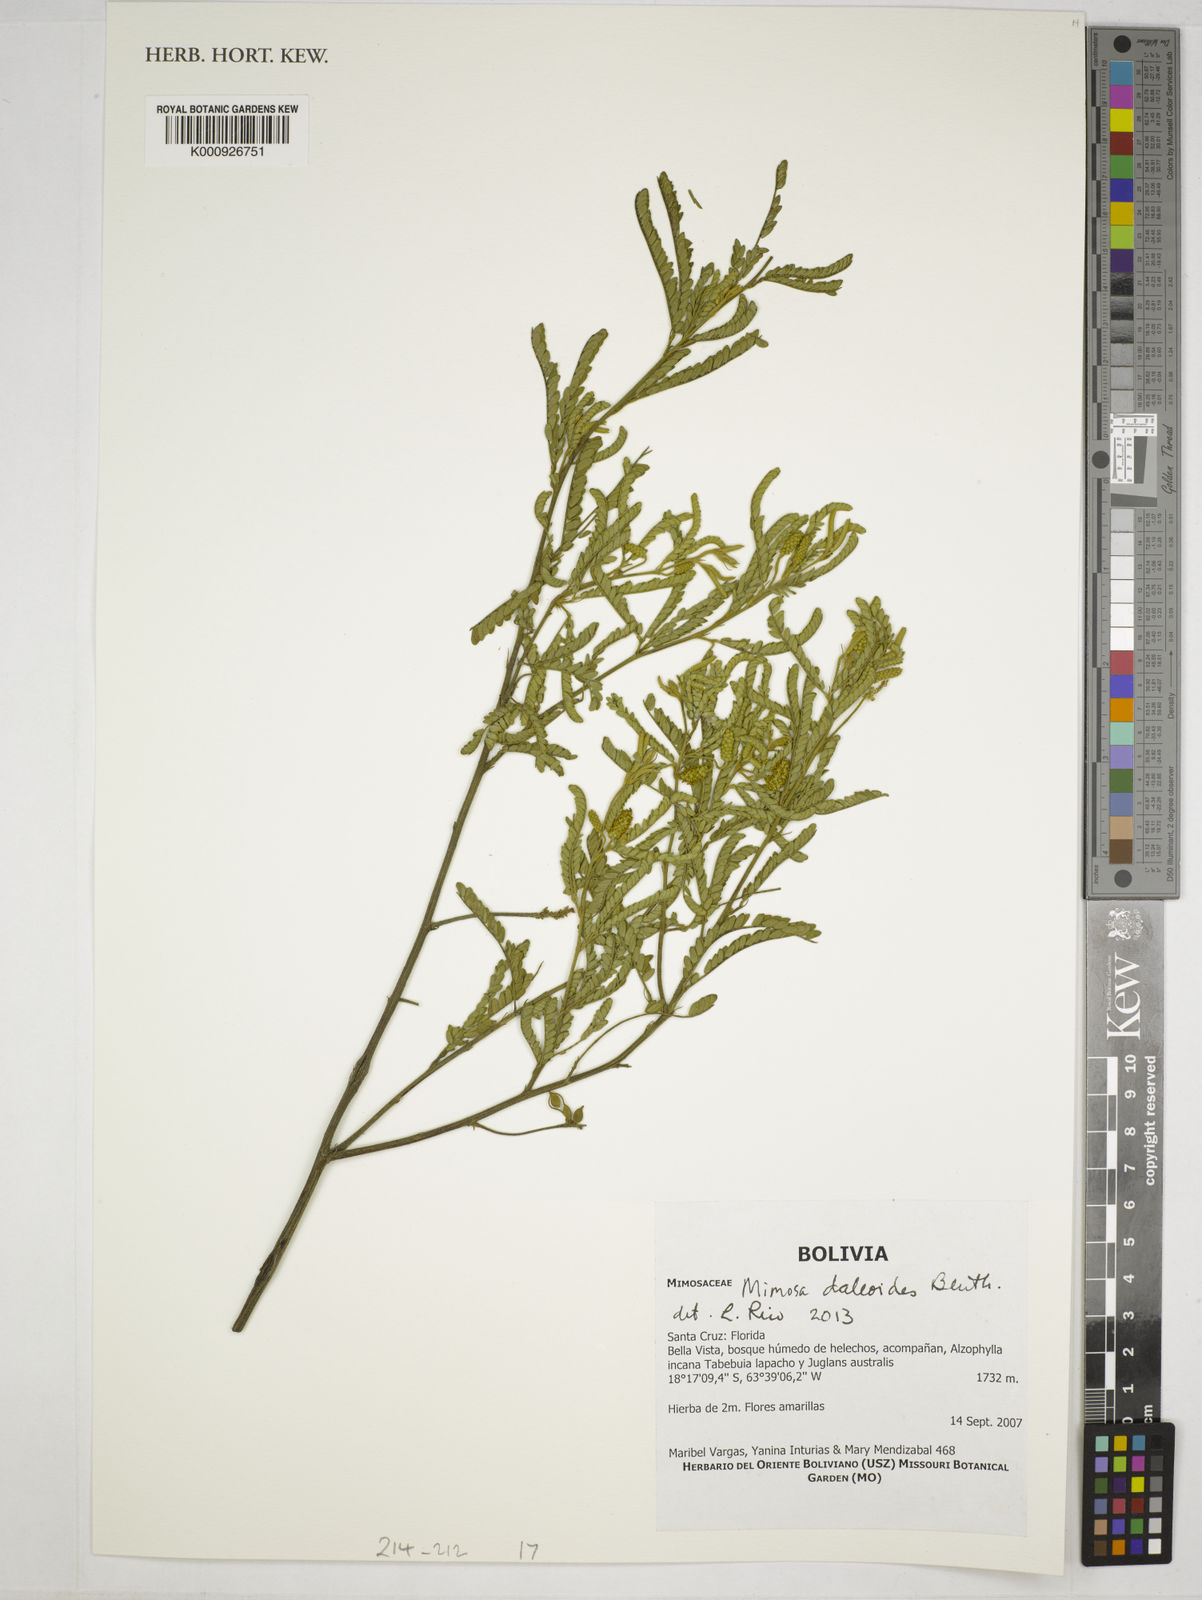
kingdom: Plantae
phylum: Tracheophyta
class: Magnoliopsida
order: Fabales
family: Fabaceae
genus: Mimosa
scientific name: Mimosa
